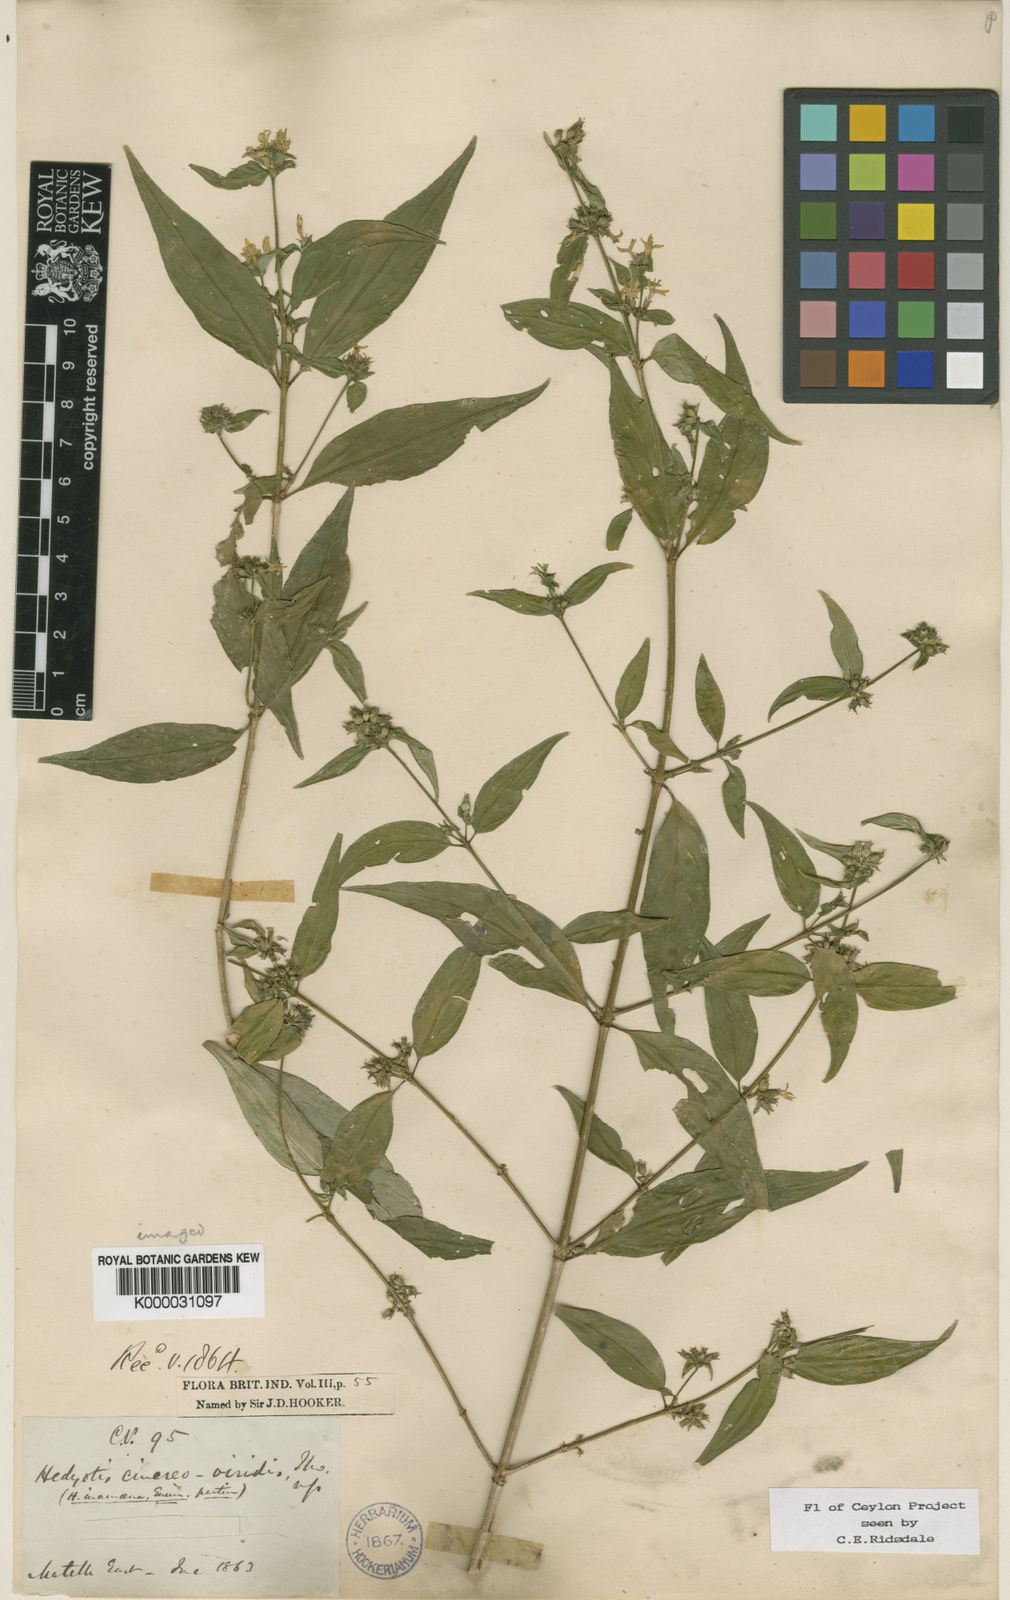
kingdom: Plantae
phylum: Tracheophyta
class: Magnoliopsida
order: Gentianales
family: Rubiaceae
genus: Hedyotis
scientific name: Hedyotis cinereoviridis
